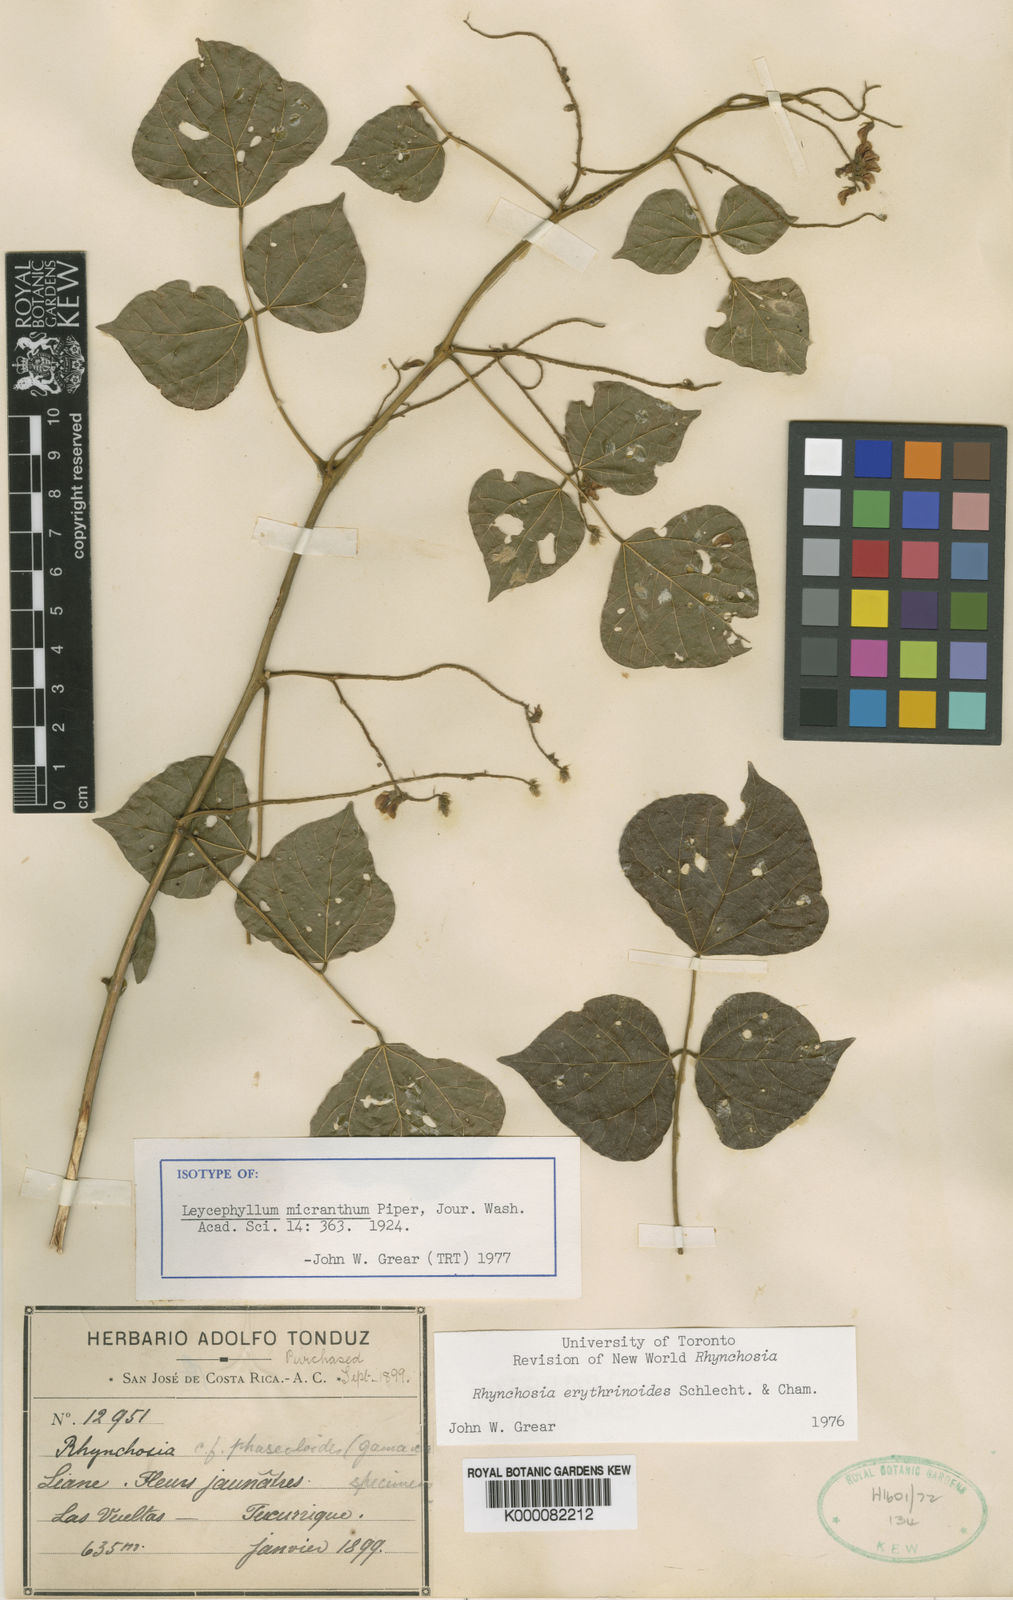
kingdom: Plantae
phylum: Tracheophyta
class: Magnoliopsida
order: Fabales
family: Fabaceae
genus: Rhynchosia
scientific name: Rhynchosia
